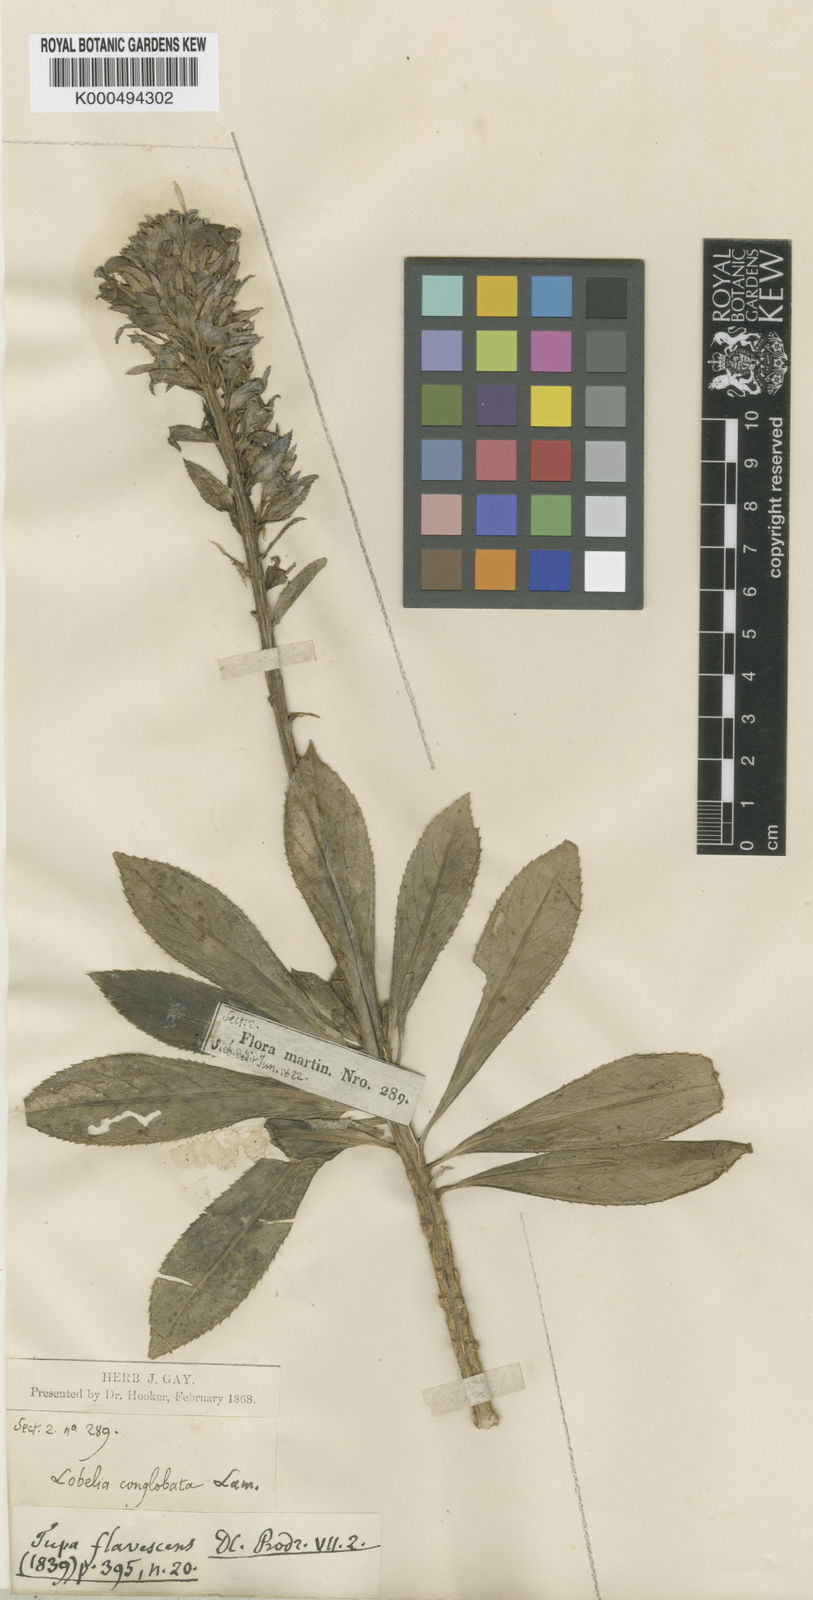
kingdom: Plantae
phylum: Tracheophyta
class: Magnoliopsida
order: Asterales
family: Campanulaceae
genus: Lobelia
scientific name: Lobelia
